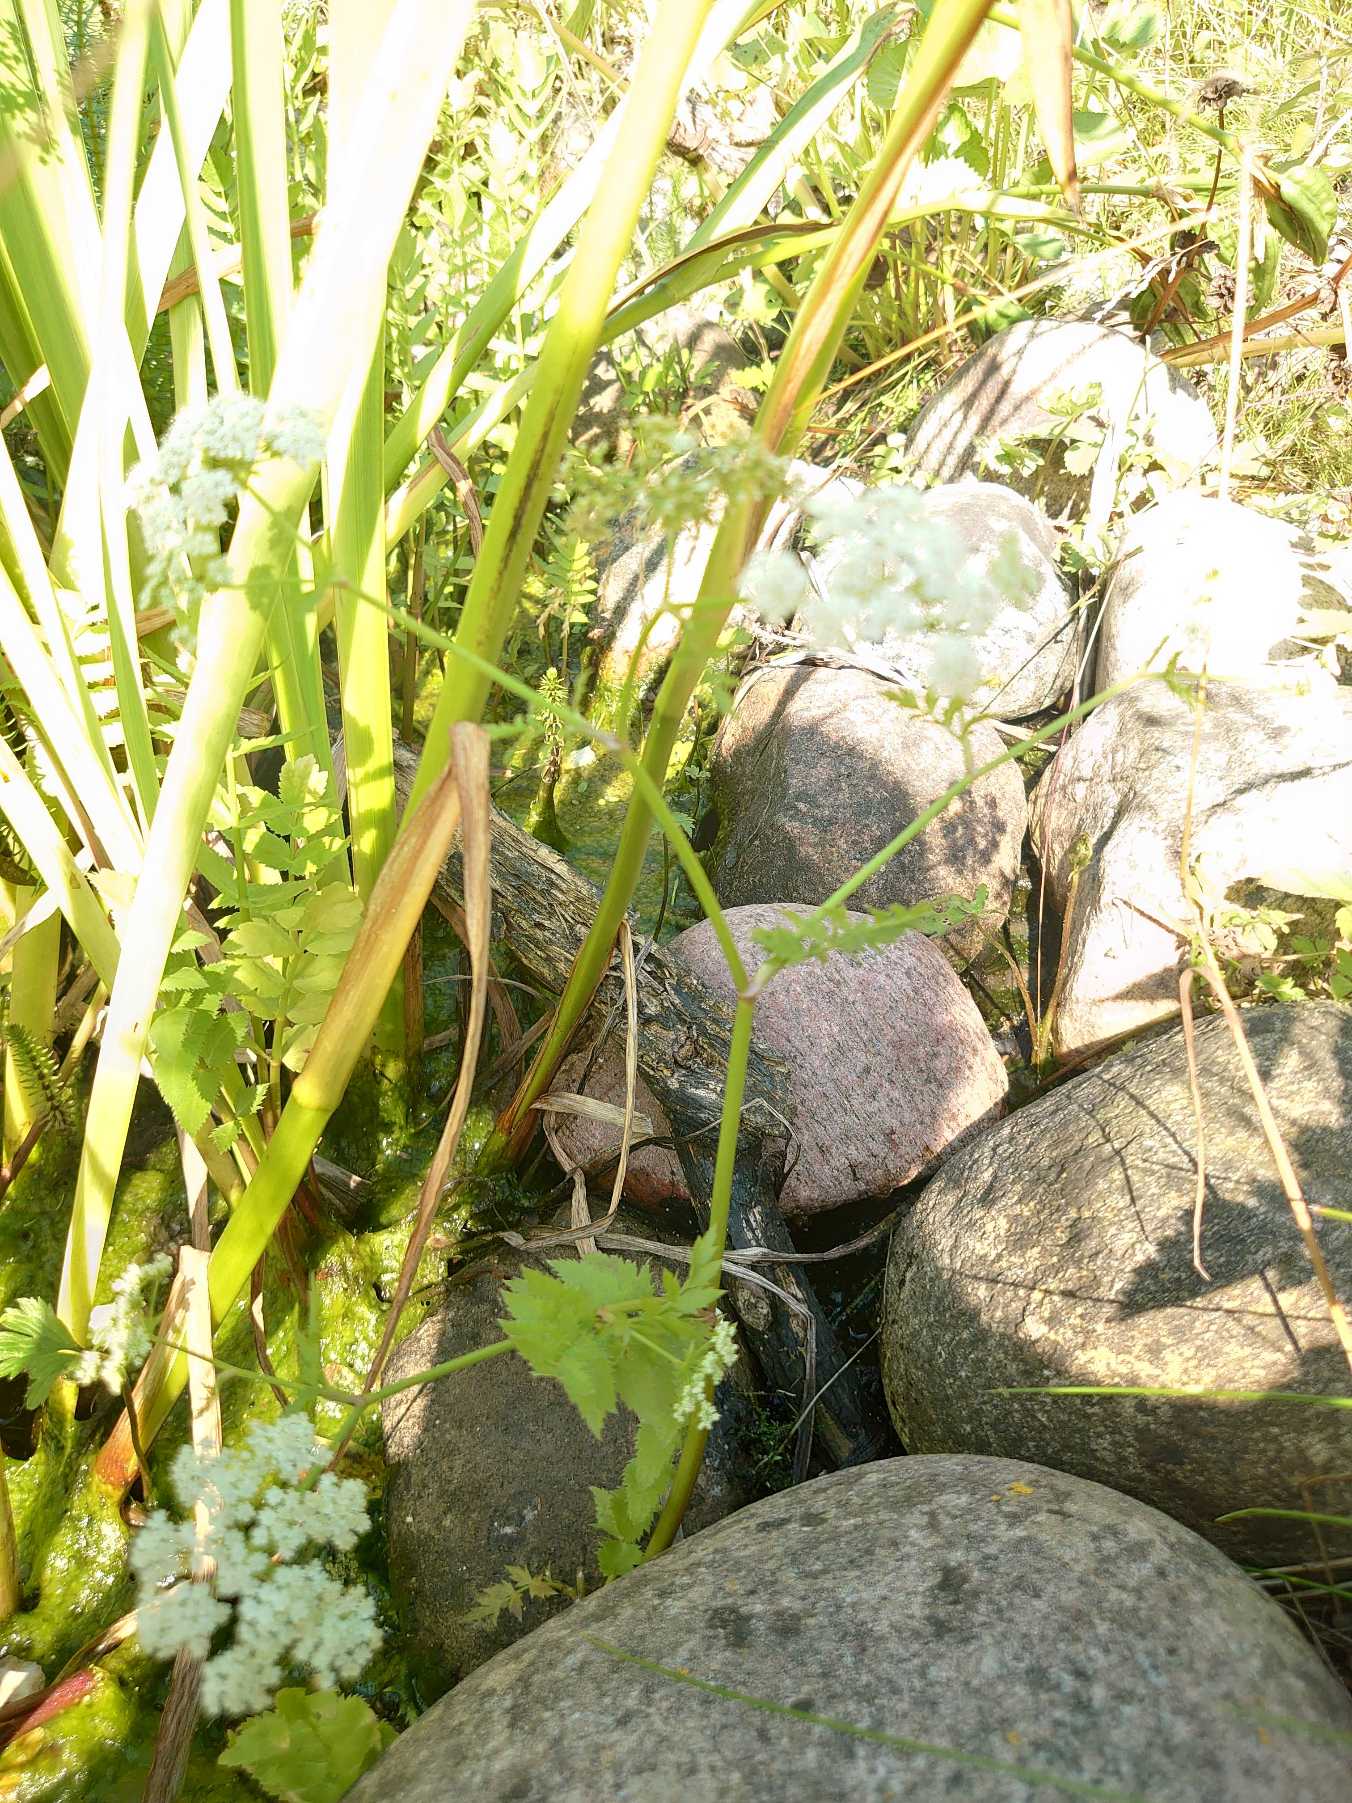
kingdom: Plantae
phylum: Tracheophyta
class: Magnoliopsida
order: Apiales
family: Apiaceae
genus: Berula
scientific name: Berula erecta
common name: Sideskærm
